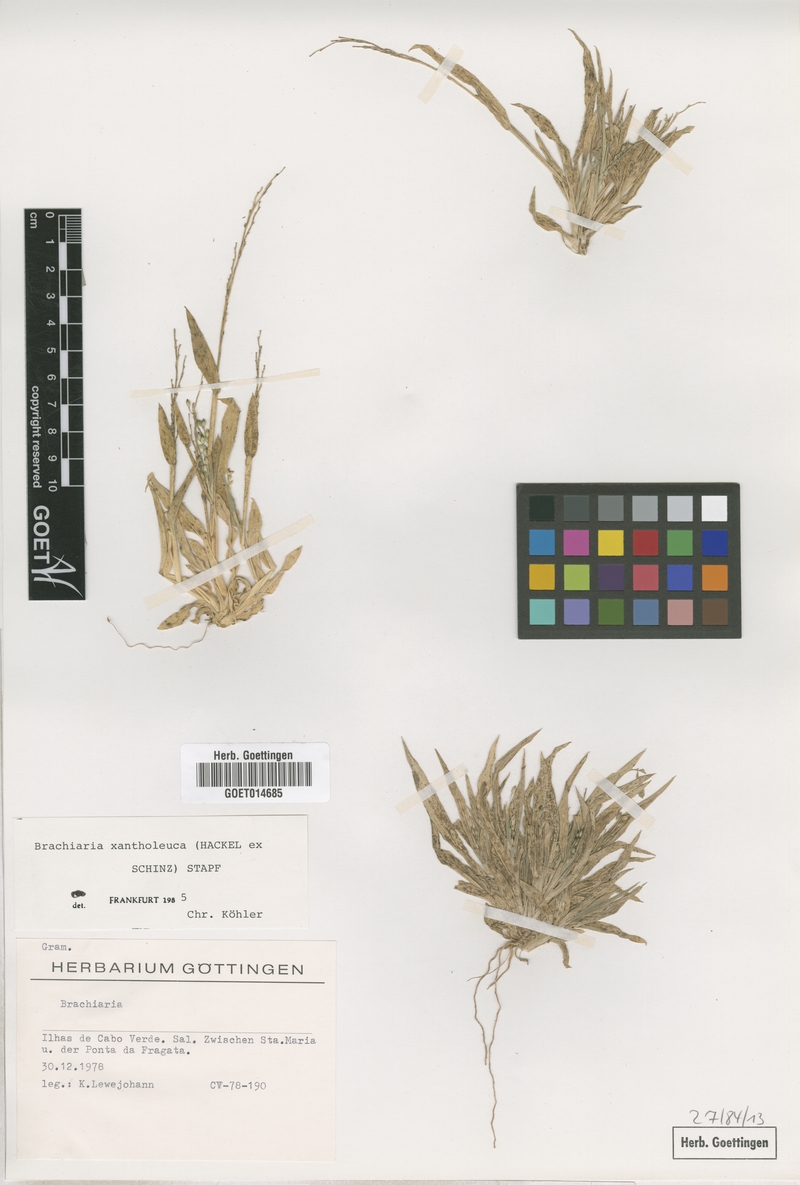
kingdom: Plantae
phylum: Tracheophyta
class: Liliopsida
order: Poales
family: Poaceae
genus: Urochloa
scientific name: Urochloa xantholeuca
